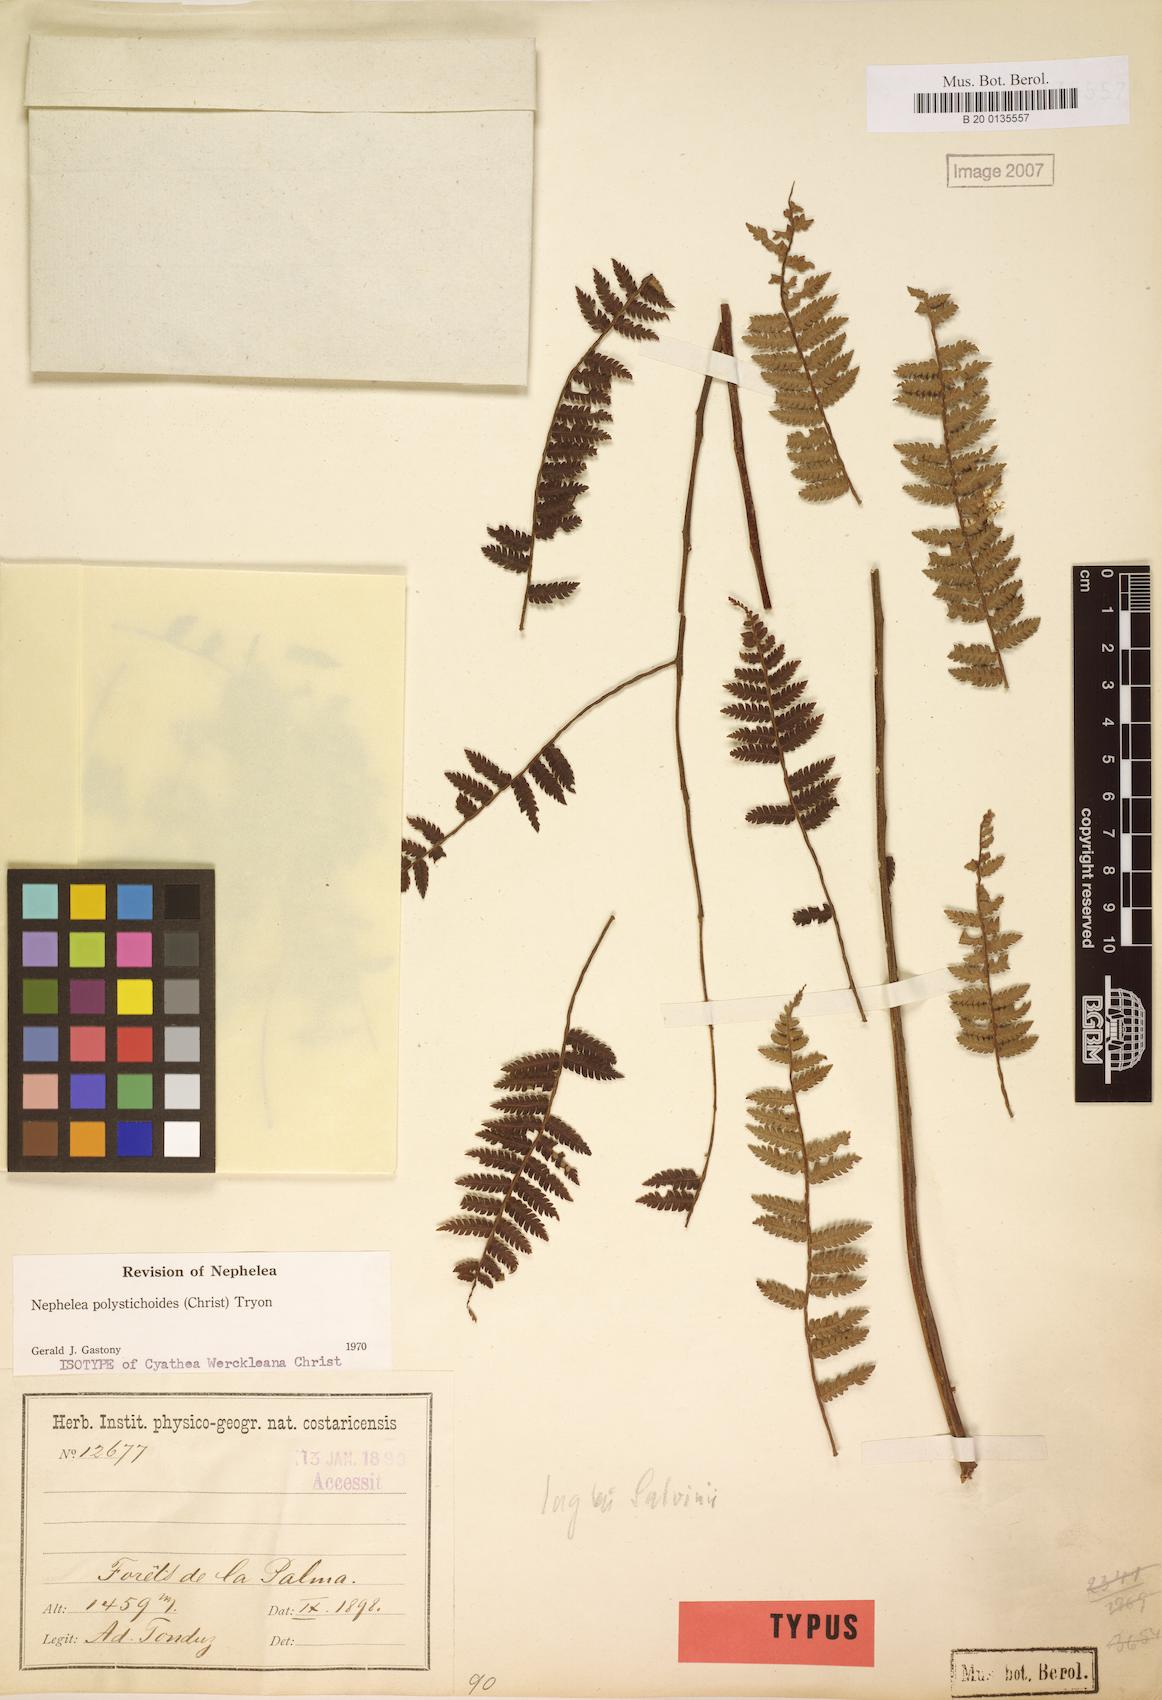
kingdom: Plantae
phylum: Tracheophyta
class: Polypodiopsida
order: Cyatheales
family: Cyatheaceae
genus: Alsophila
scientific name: Alsophila polystichoides
